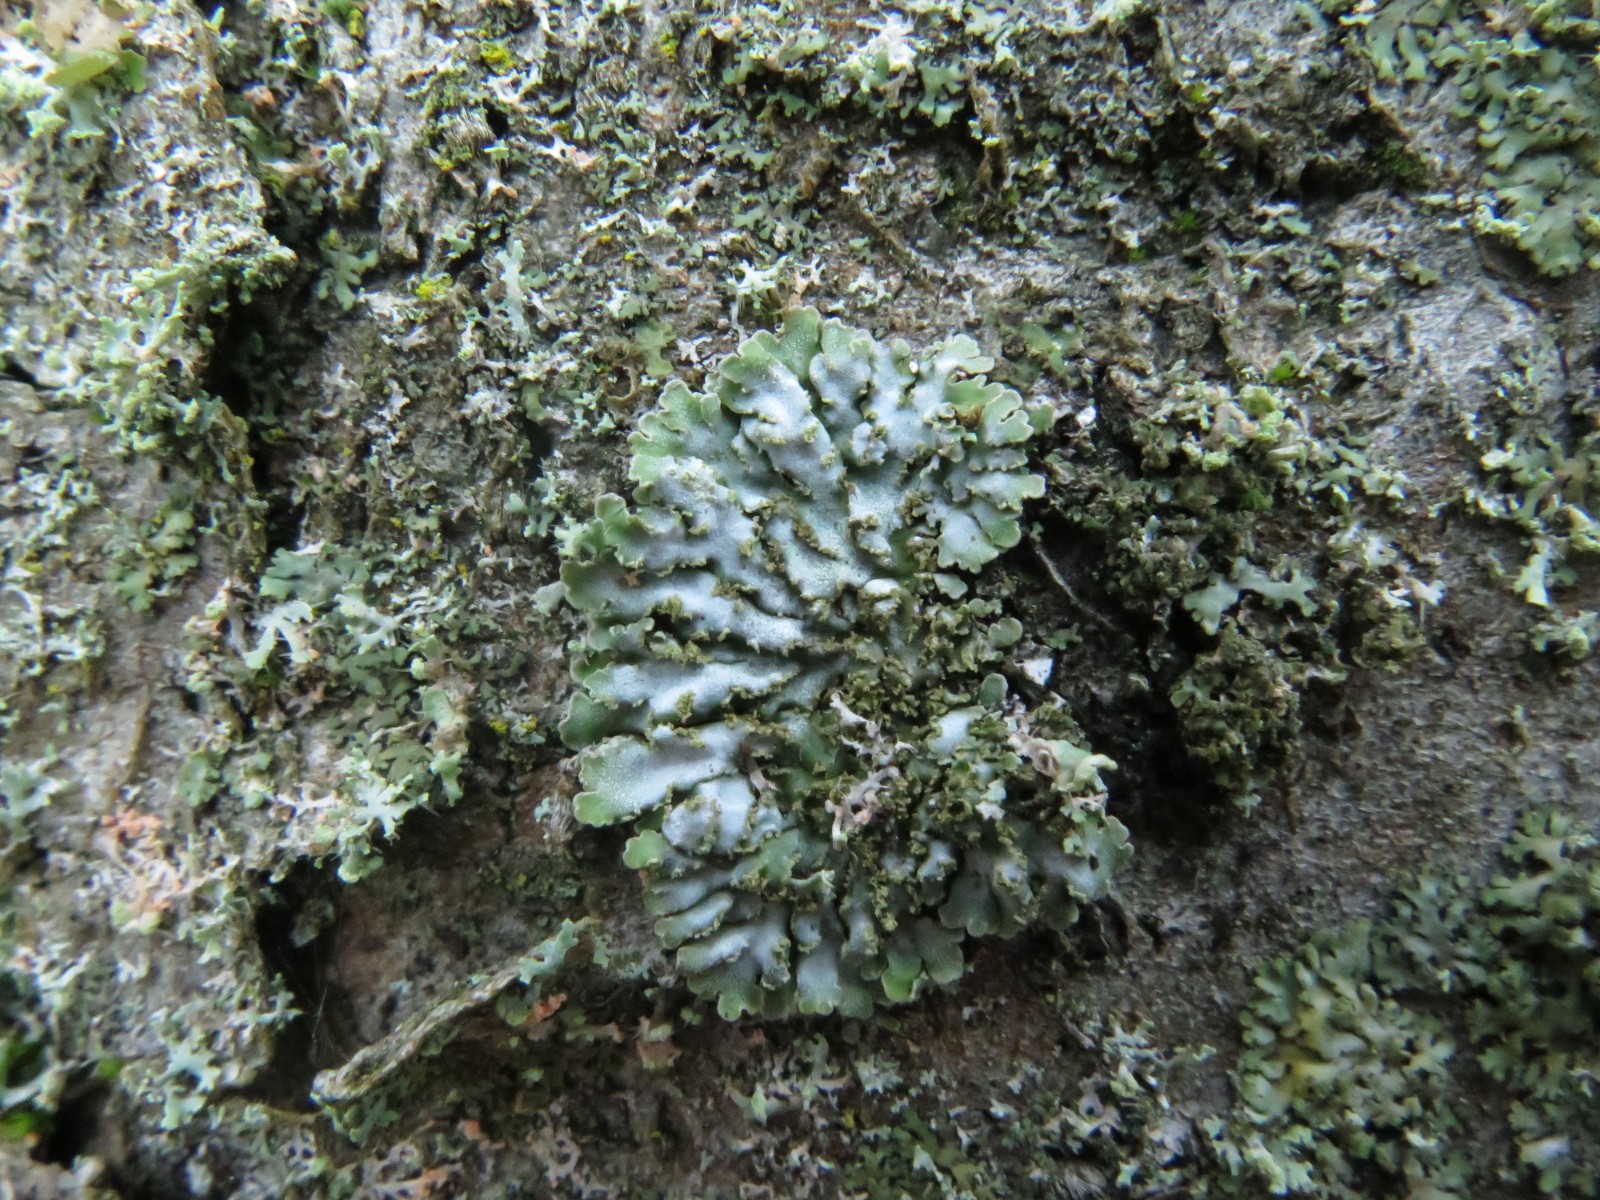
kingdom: Fungi
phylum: Ascomycota
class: Lecanoromycetes
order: Caliciales
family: Physciaceae
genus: Poeltonia
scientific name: Poeltonia grisea
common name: hvidgrå dugrosetlav
